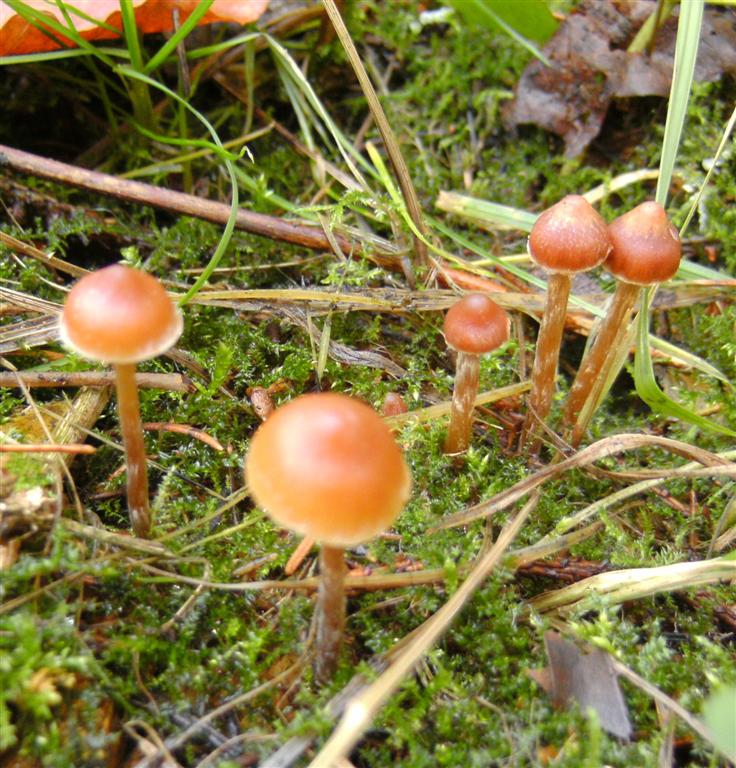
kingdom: Fungi
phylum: Basidiomycota
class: Agaricomycetes
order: Agaricales
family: Hymenogastraceae
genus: Galerina
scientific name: Galerina sideroides
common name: træflis-hjelmhat
